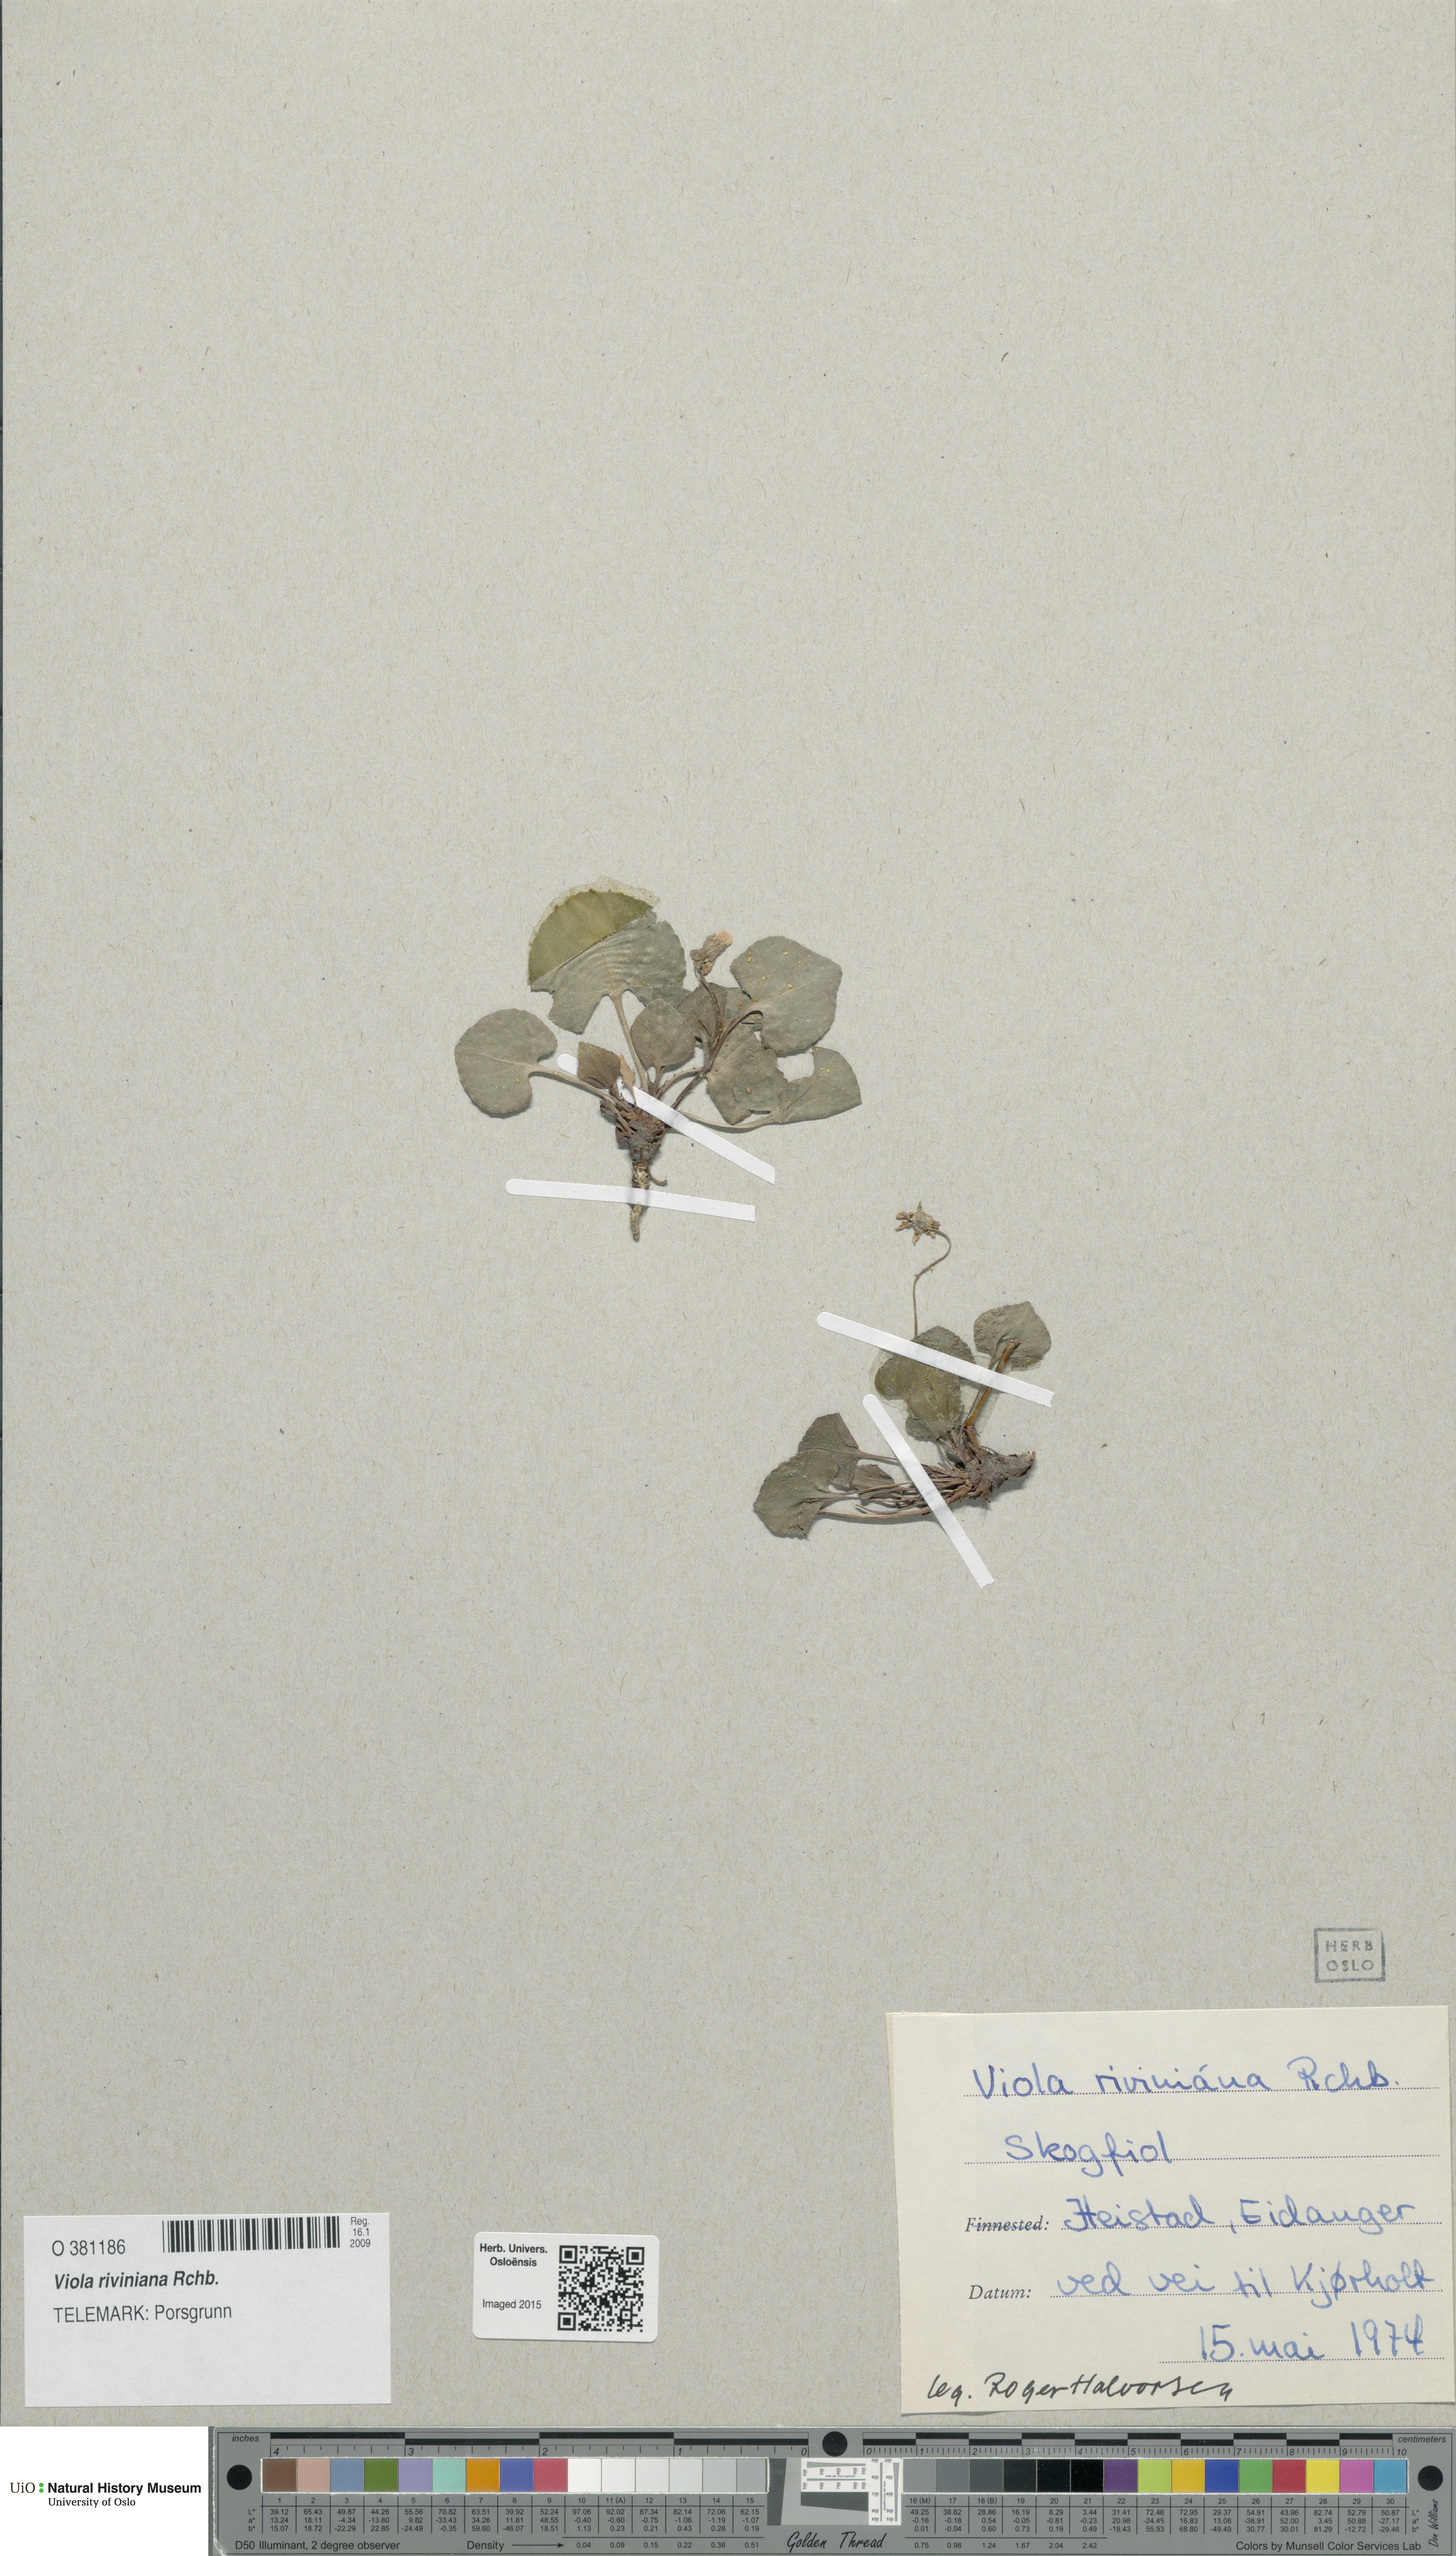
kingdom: Plantae
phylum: Tracheophyta
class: Magnoliopsida
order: Malpighiales
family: Violaceae
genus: Viola
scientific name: Viola riviniana
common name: Common dog-violet
